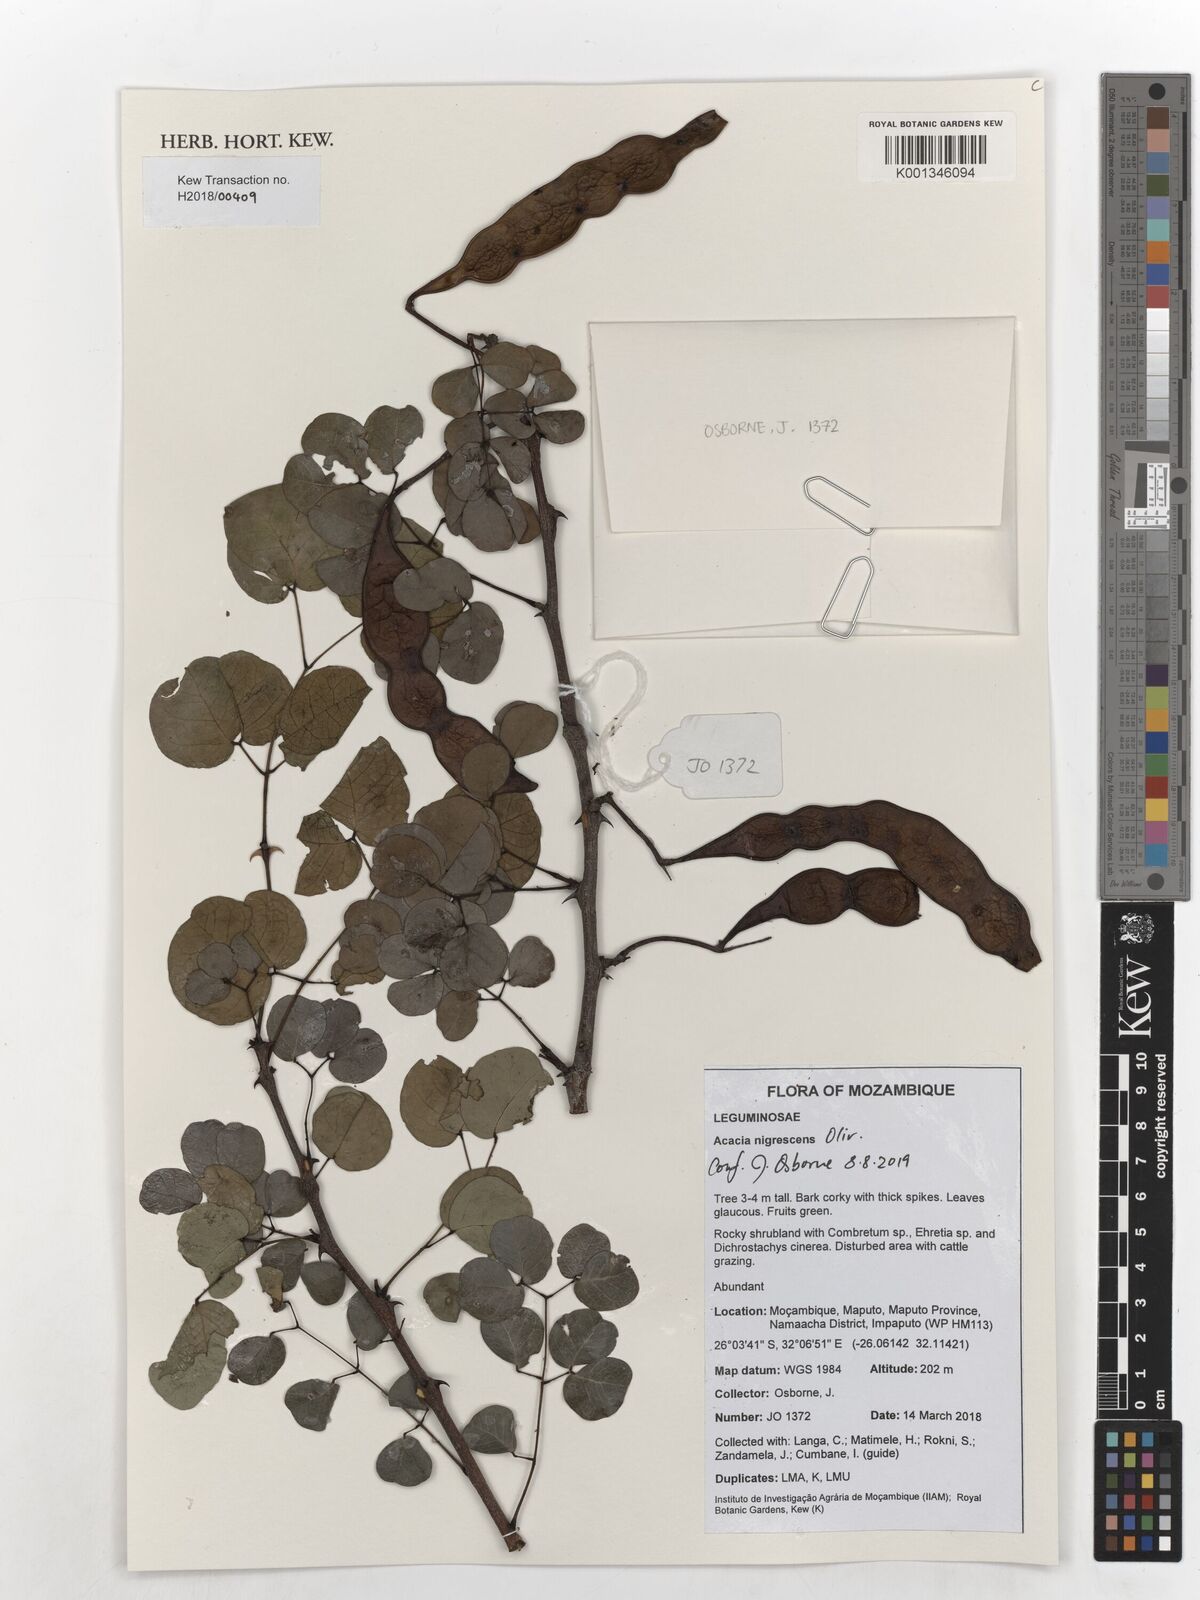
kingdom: Plantae
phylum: Tracheophyta
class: Magnoliopsida
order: Fabales
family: Fabaceae
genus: Senegalia
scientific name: Senegalia nigrescens
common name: Knobthorn
